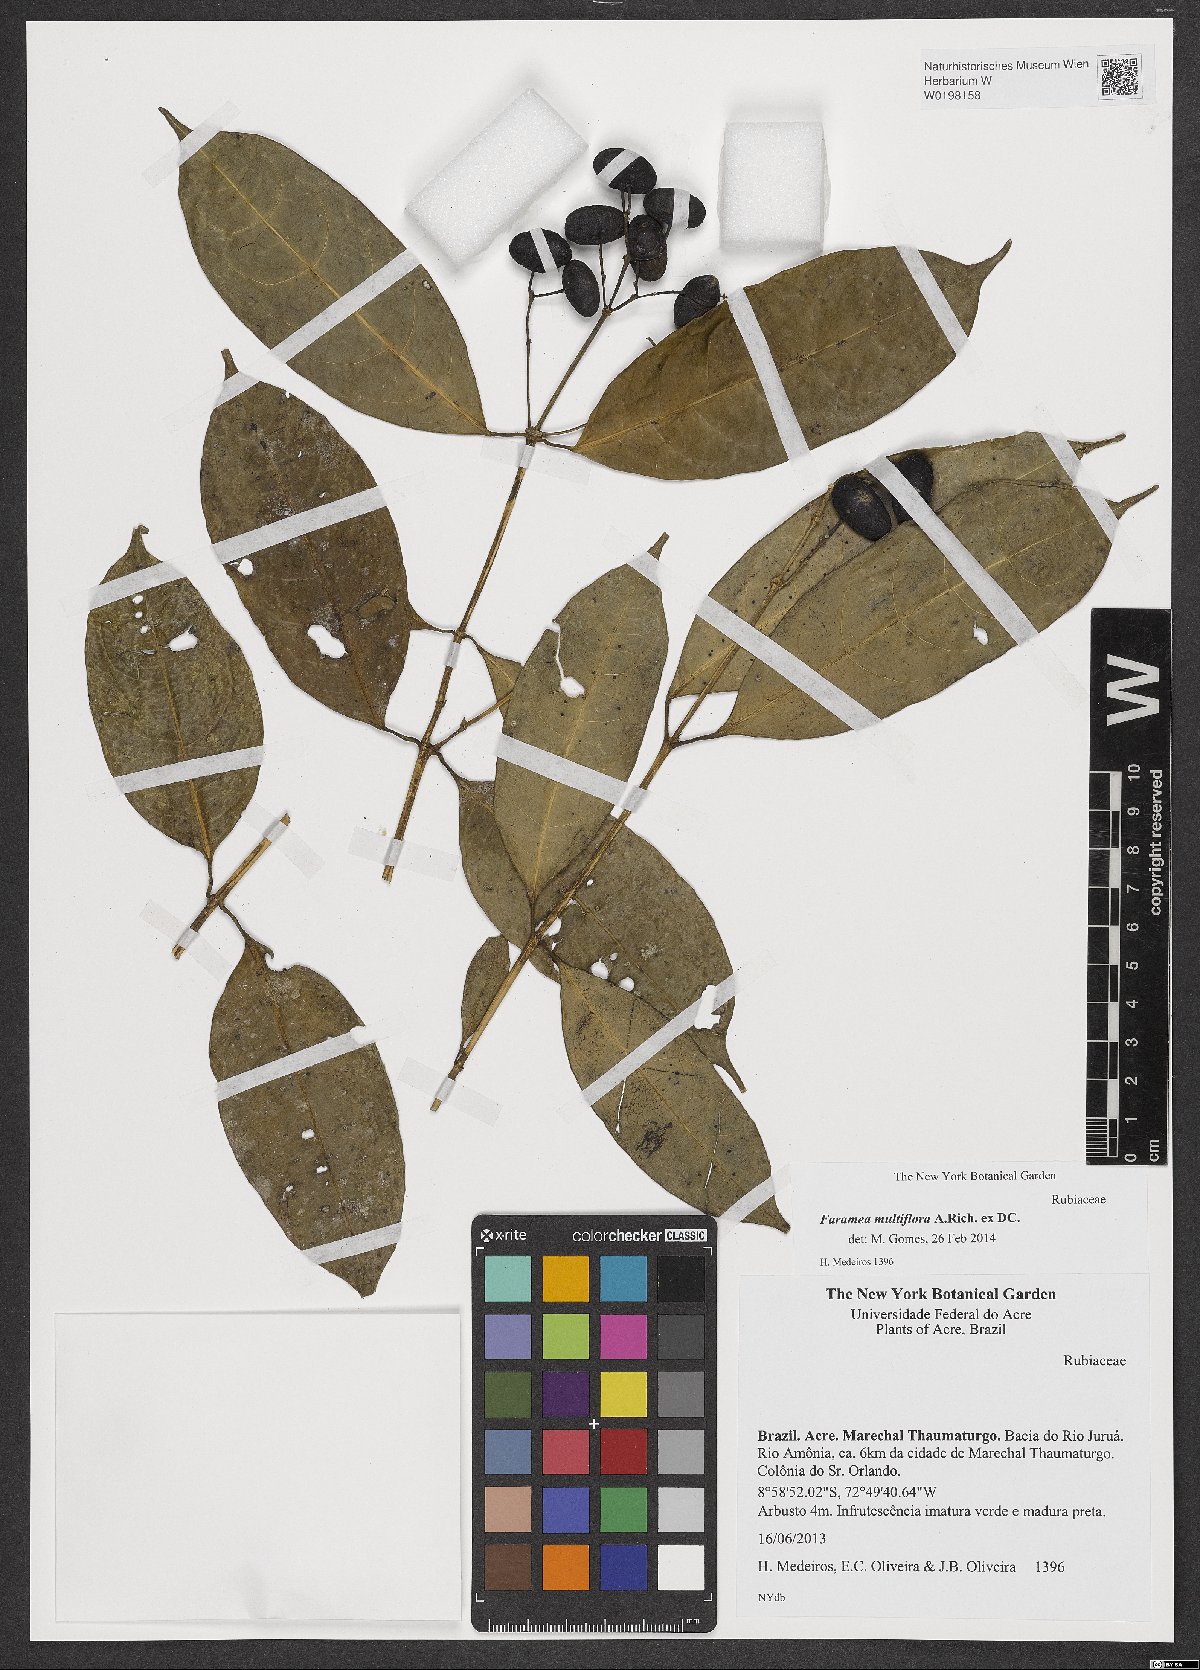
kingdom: Plantae
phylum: Tracheophyta
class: Magnoliopsida
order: Gentianales
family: Rubiaceae
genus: Faramea
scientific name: Faramea multiflora
